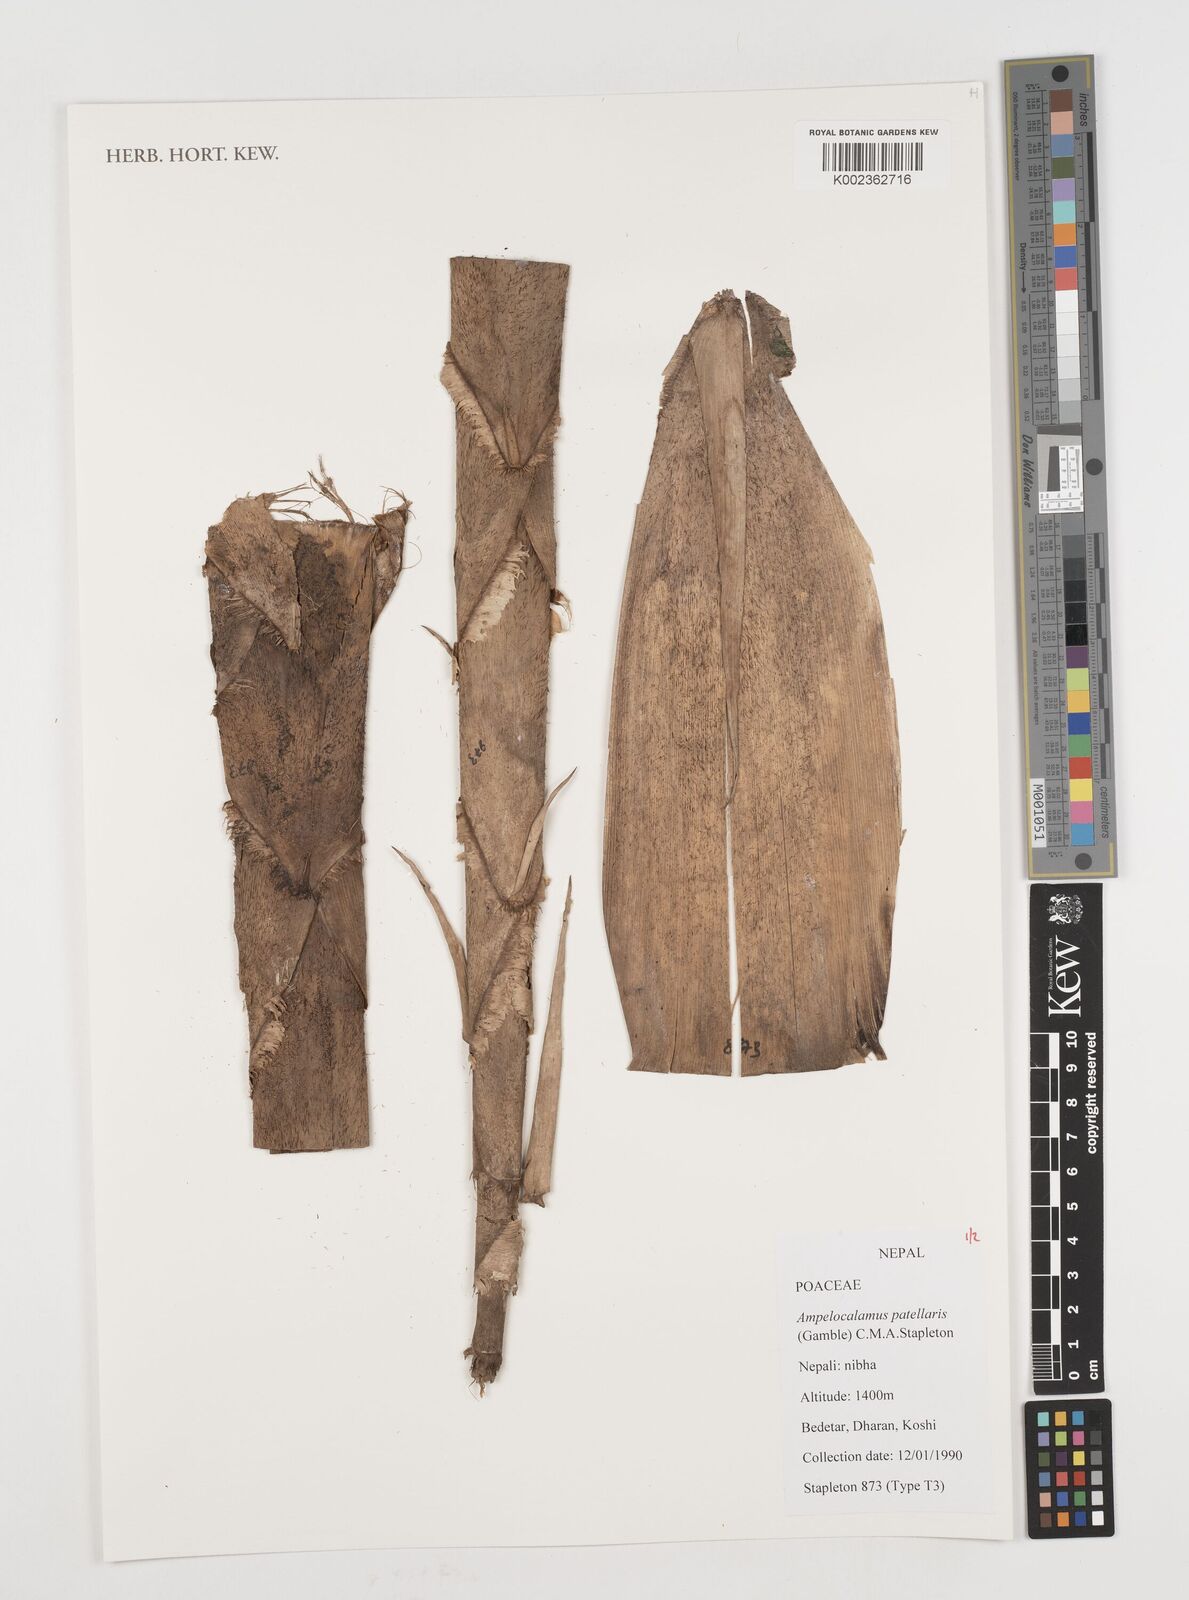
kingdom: Plantae
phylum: Tracheophyta
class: Liliopsida
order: Poales
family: Poaceae
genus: Ampelocalamus
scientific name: Ampelocalamus patellaris
